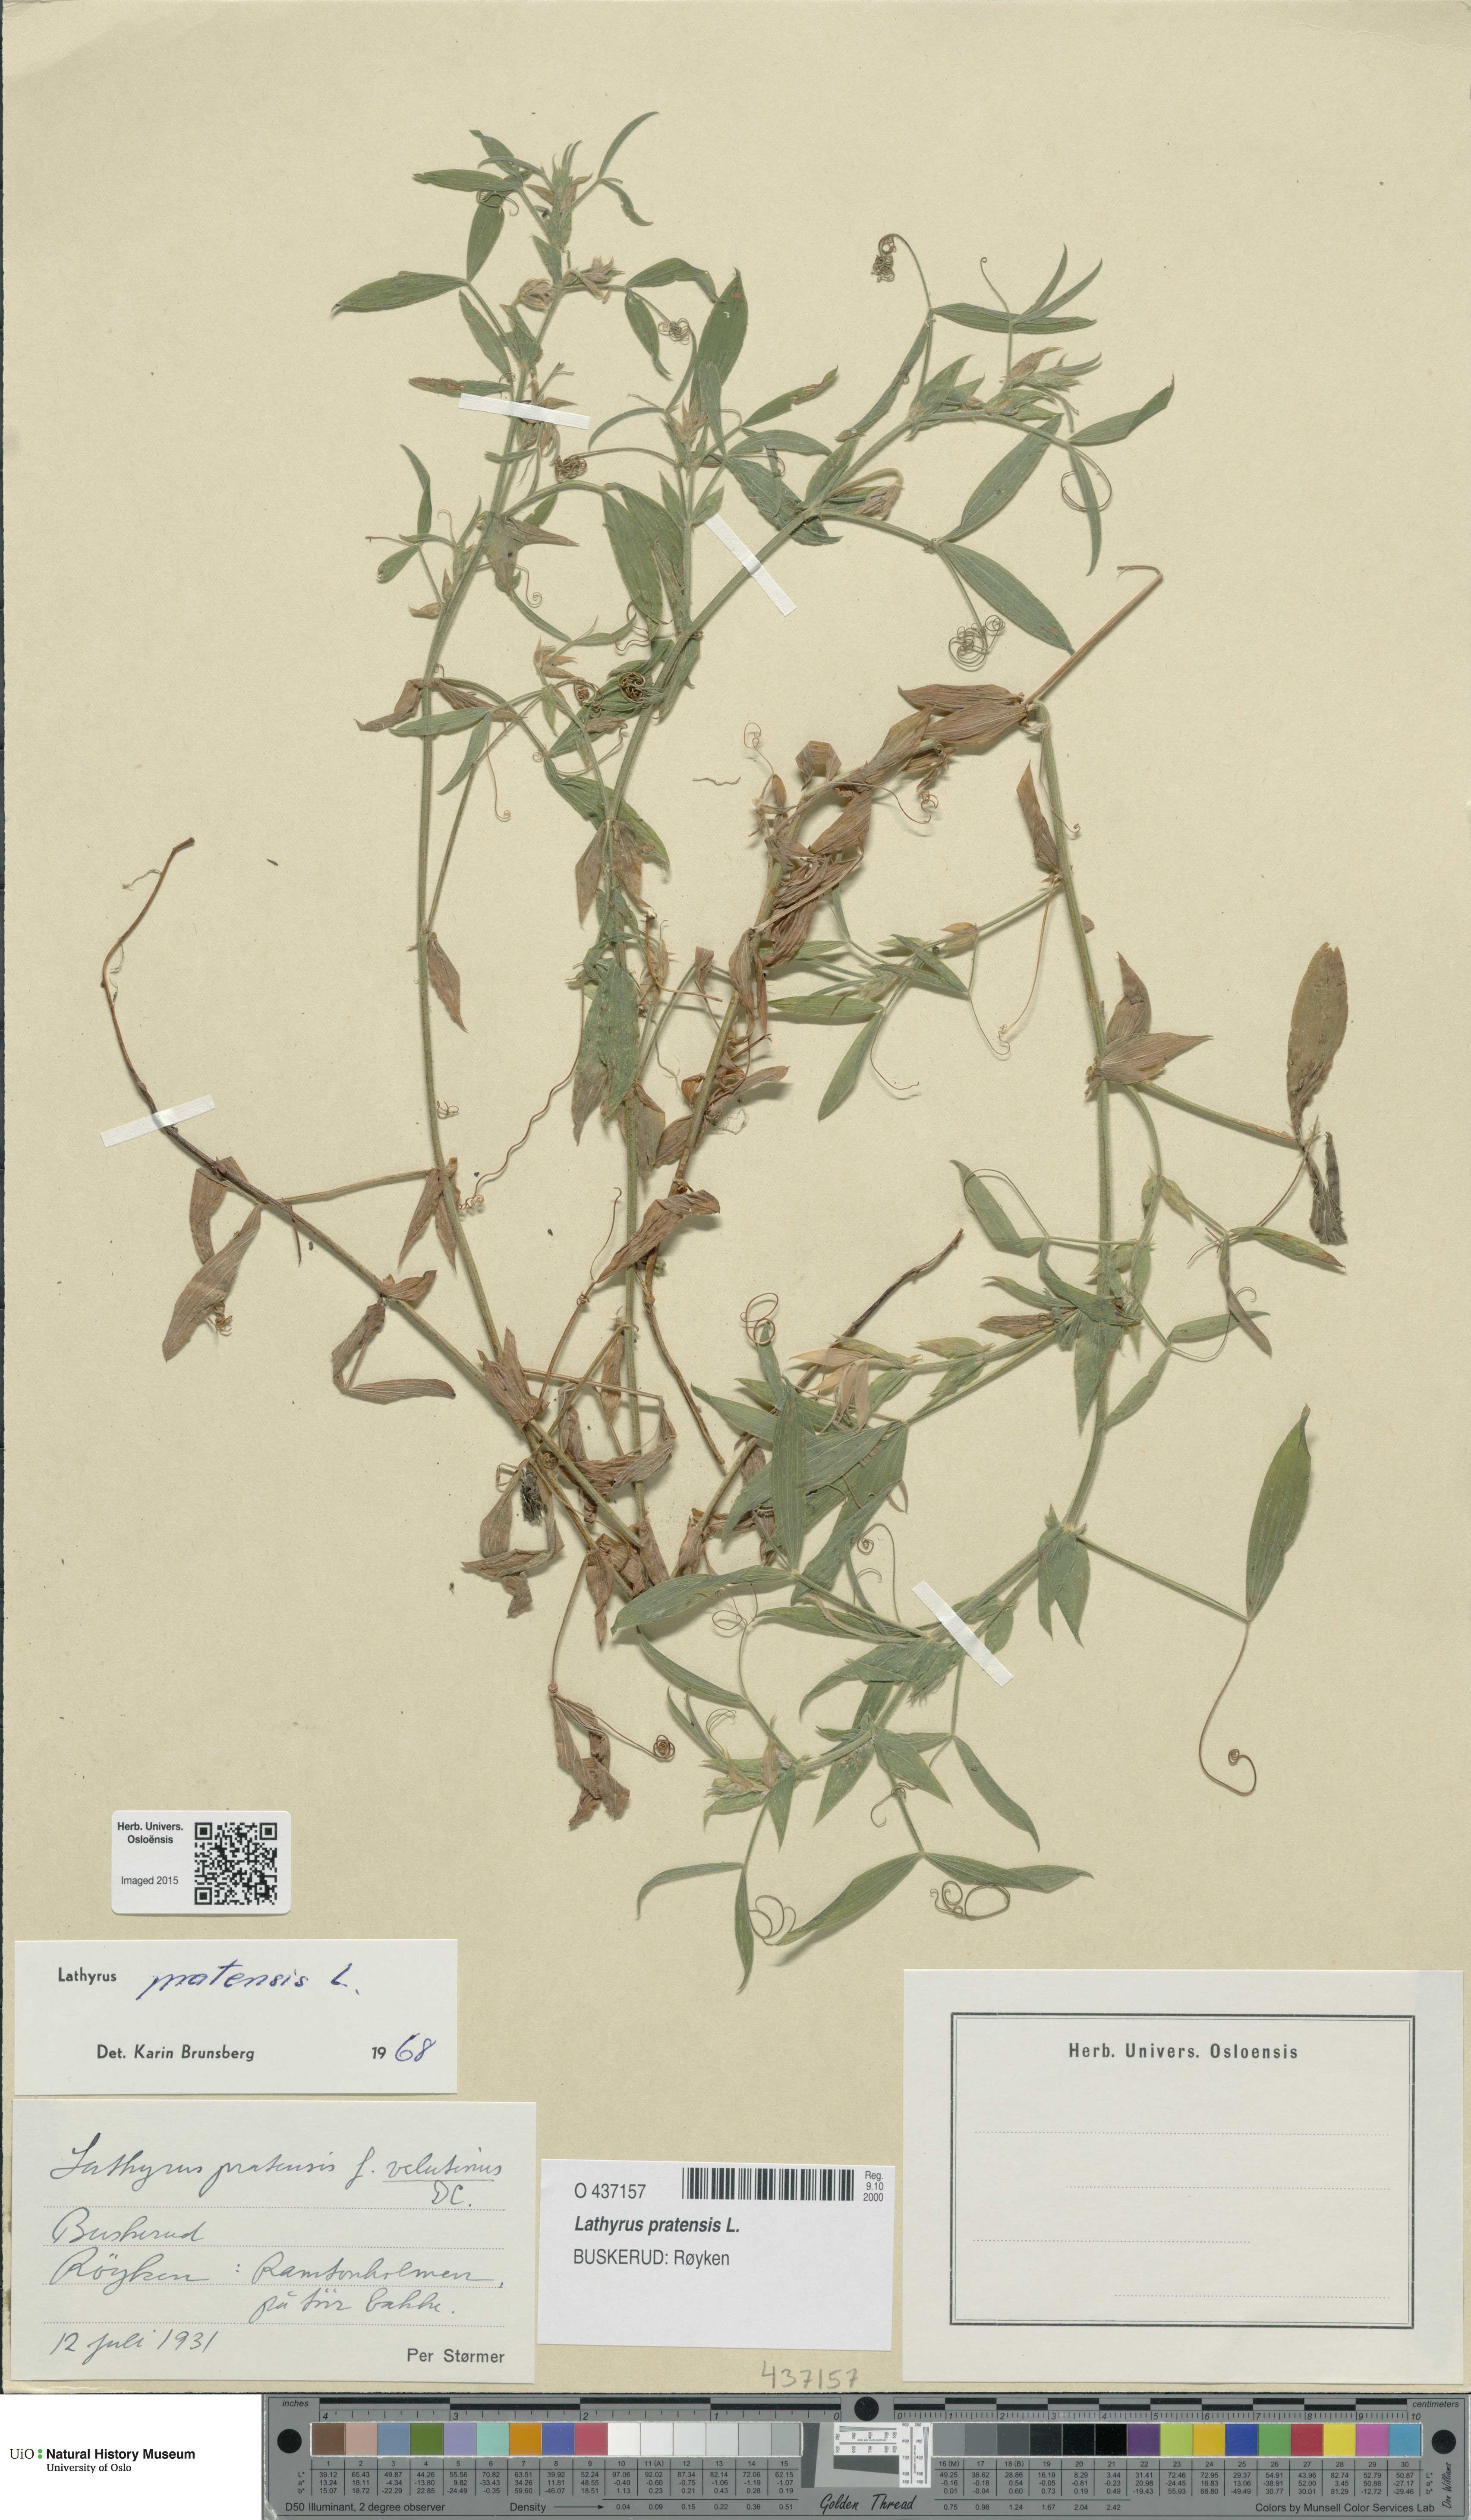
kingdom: Plantae
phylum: Tracheophyta
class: Magnoliopsida
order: Fabales
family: Fabaceae
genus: Lathyrus
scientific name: Lathyrus pratensis
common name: Meadow vetchling
